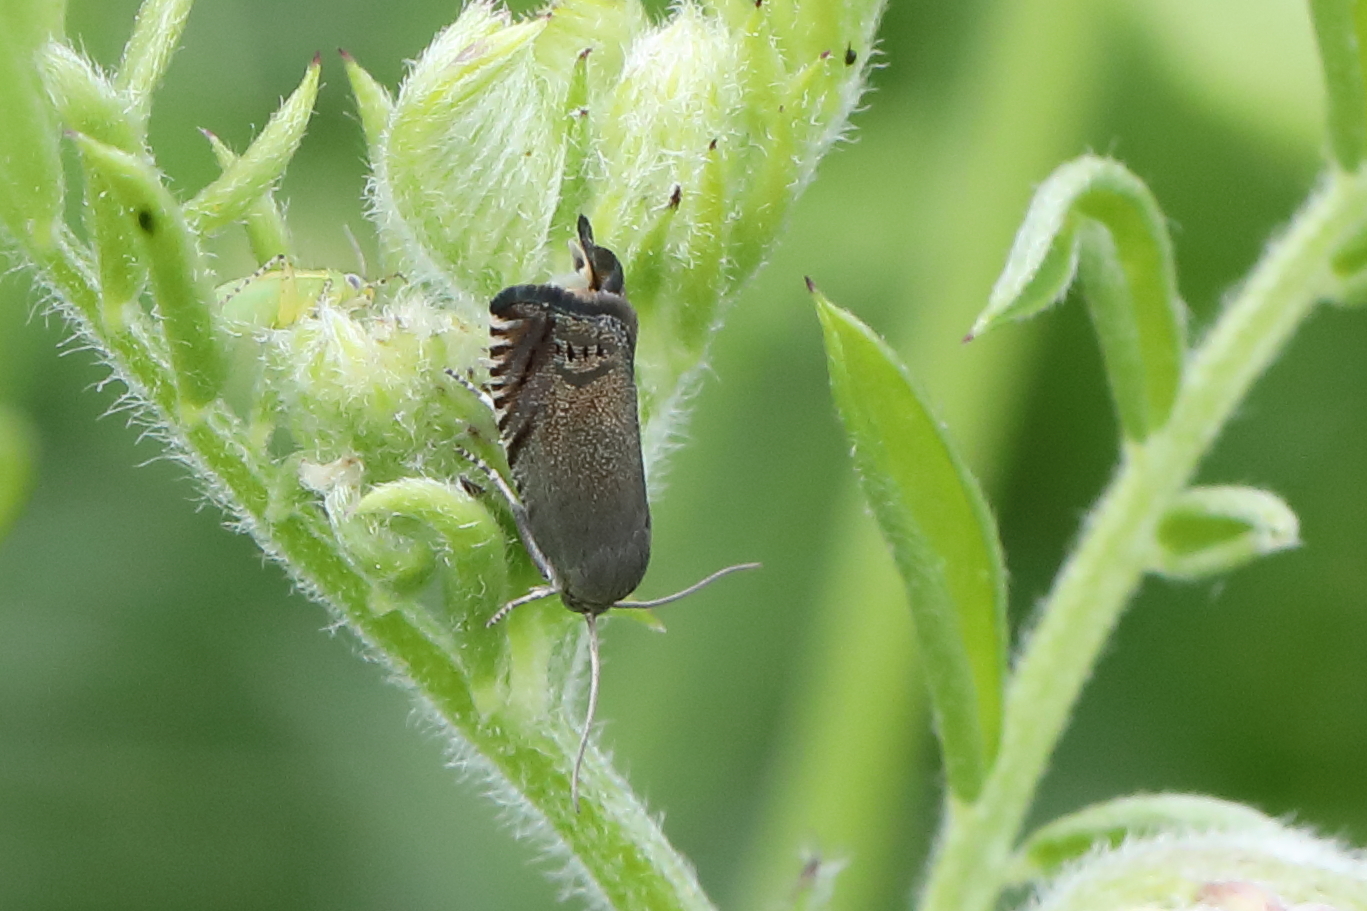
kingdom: Animalia
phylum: Arthropoda
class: Insecta
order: Lepidoptera
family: Tortricidae
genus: Cydia
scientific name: Cydia nigricana
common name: Pea moth
